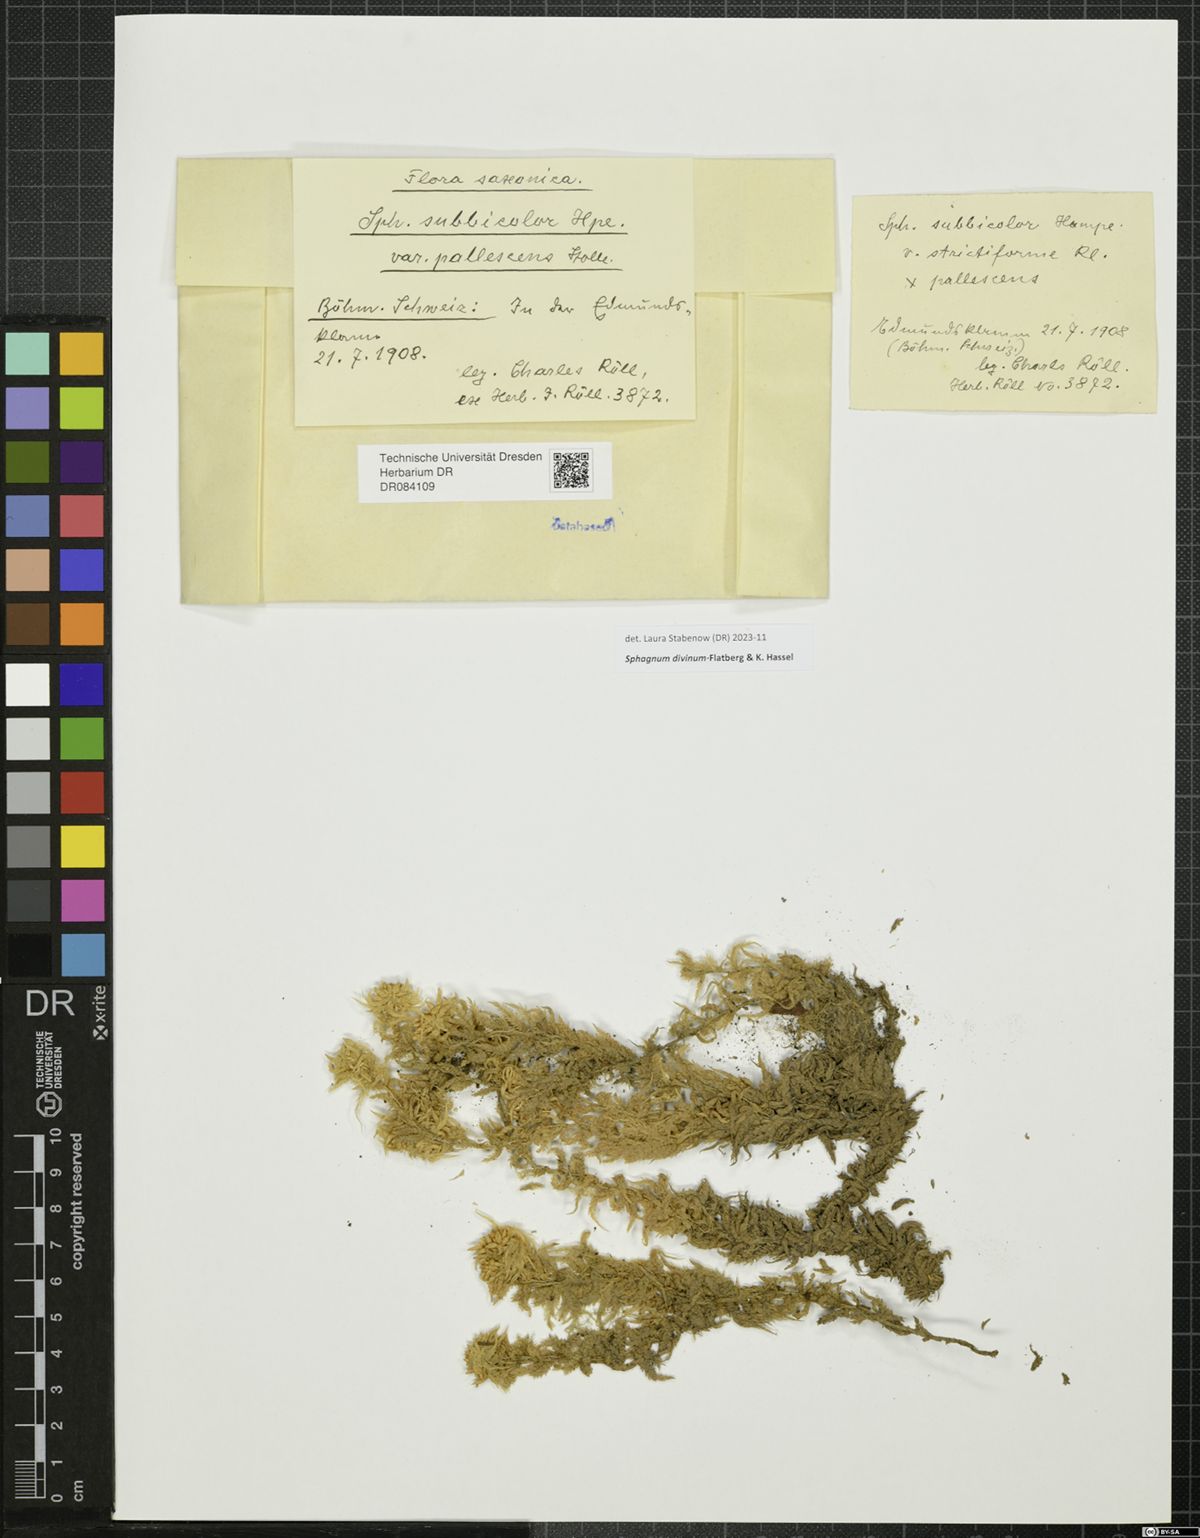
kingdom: Plantae
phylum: Bryophyta
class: Sphagnopsida
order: Sphagnales
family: Sphagnaceae
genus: Sphagnum
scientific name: Sphagnum divinum
